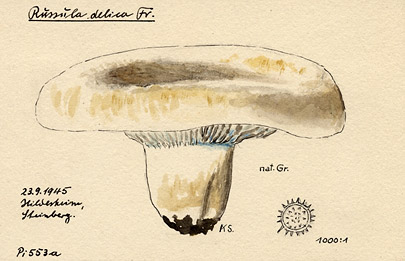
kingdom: Fungi
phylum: Basidiomycota
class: Agaricomycetes
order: Russulales
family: Russulaceae
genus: Russula
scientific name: Russula delica
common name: Milk white brittlegill
